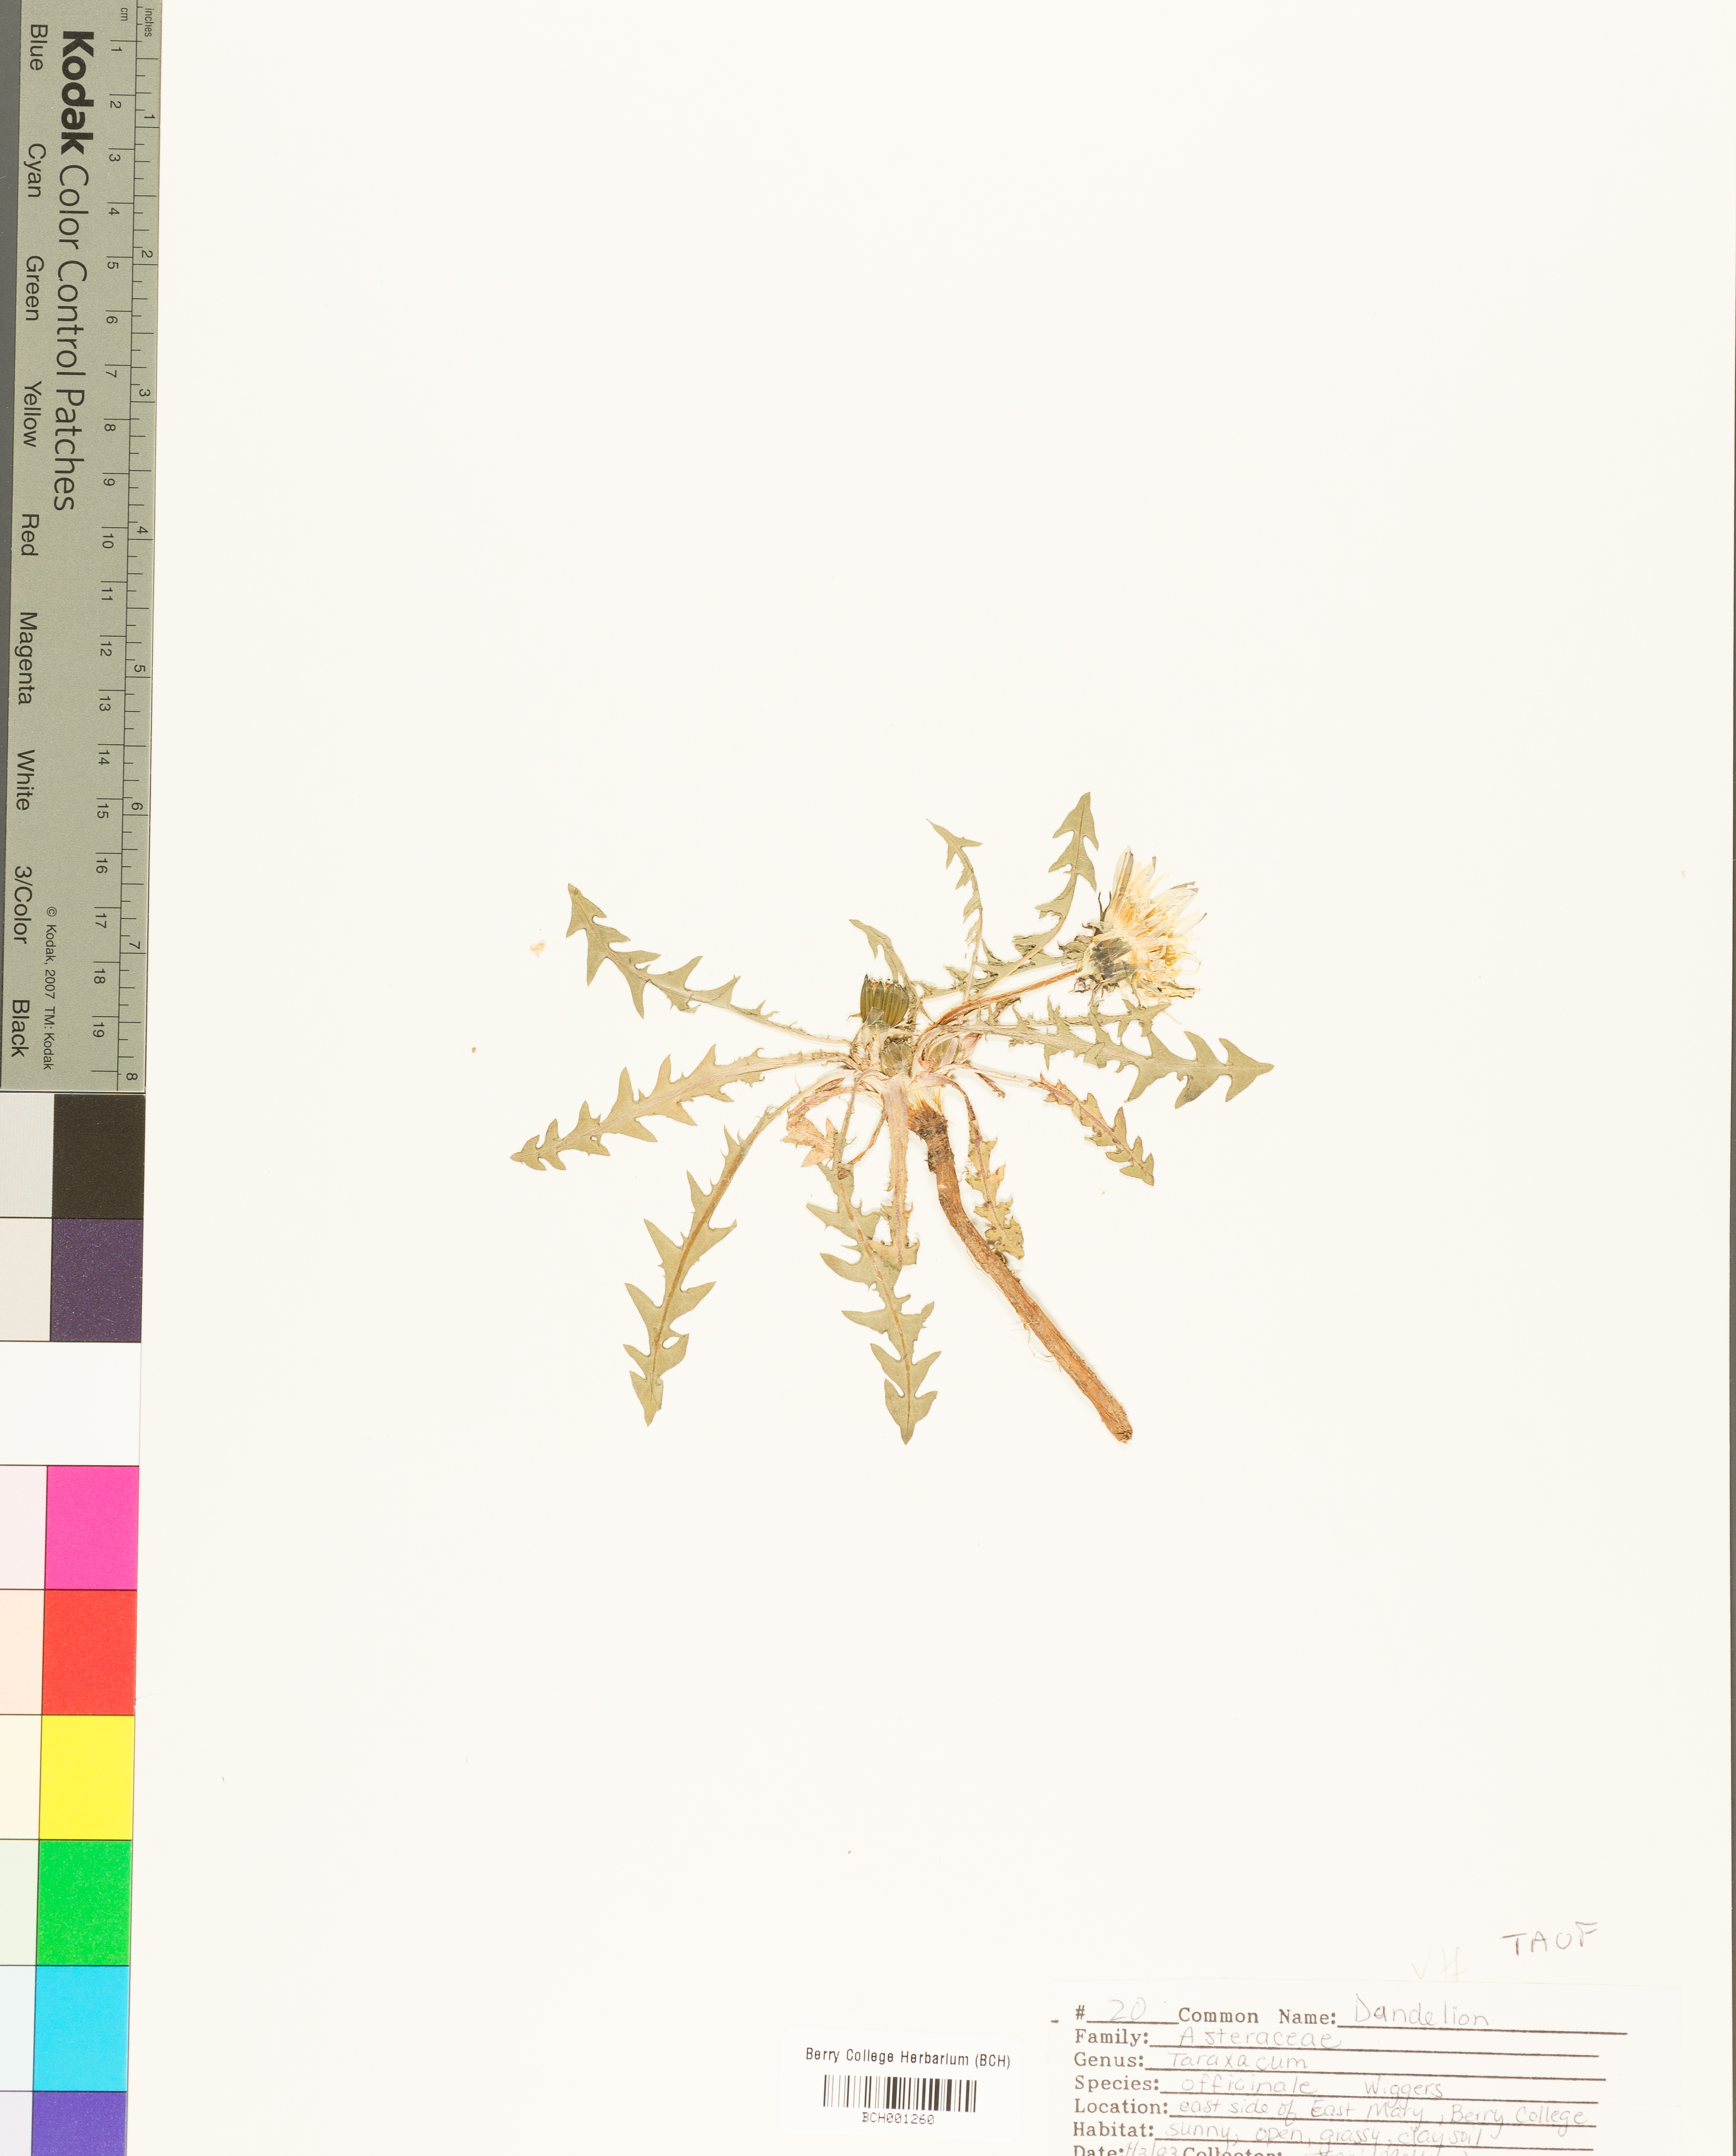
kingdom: Plantae
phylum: Tracheophyta
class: Magnoliopsida
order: Asterales
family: Asteraceae
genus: Taraxacum
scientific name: Taraxacum officinale
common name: Common dandelion
